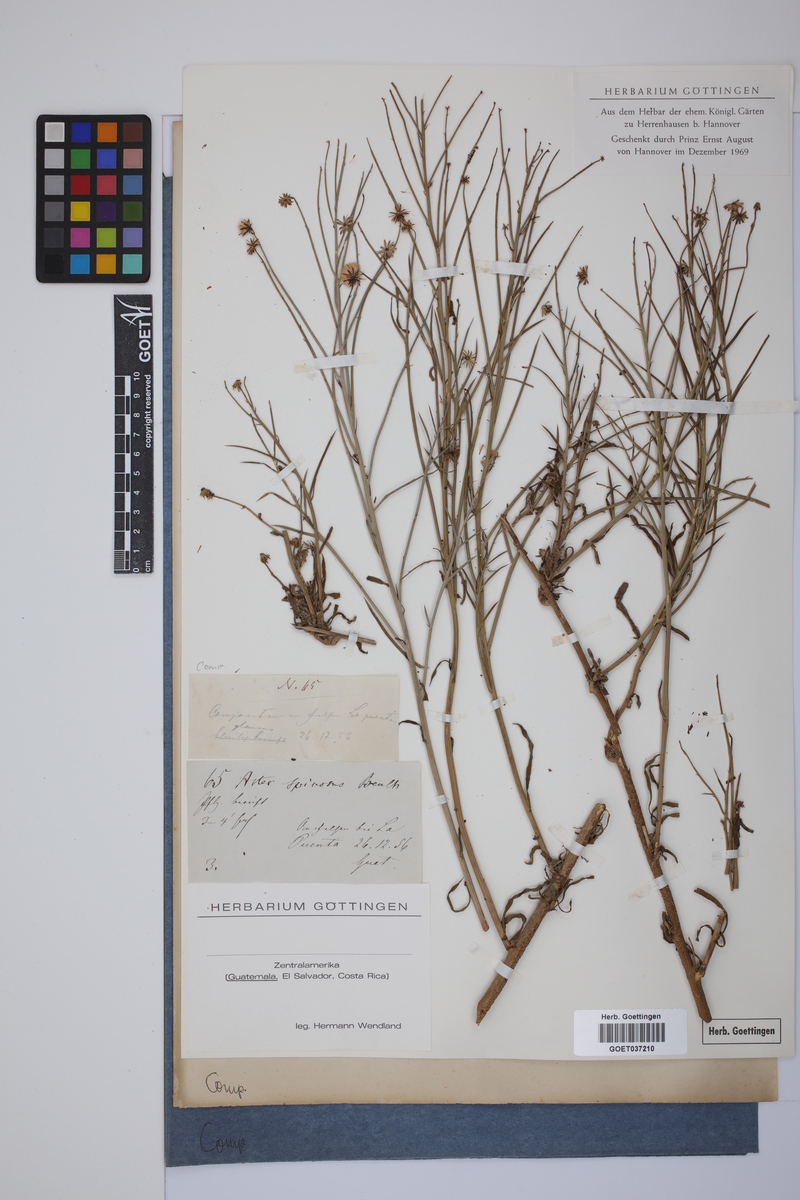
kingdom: Plantae
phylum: Tracheophyta
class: Magnoliopsida
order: Asterales
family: Asteraceae
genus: Chloracantha
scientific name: Chloracantha spinosa
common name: Mexican devilweed
